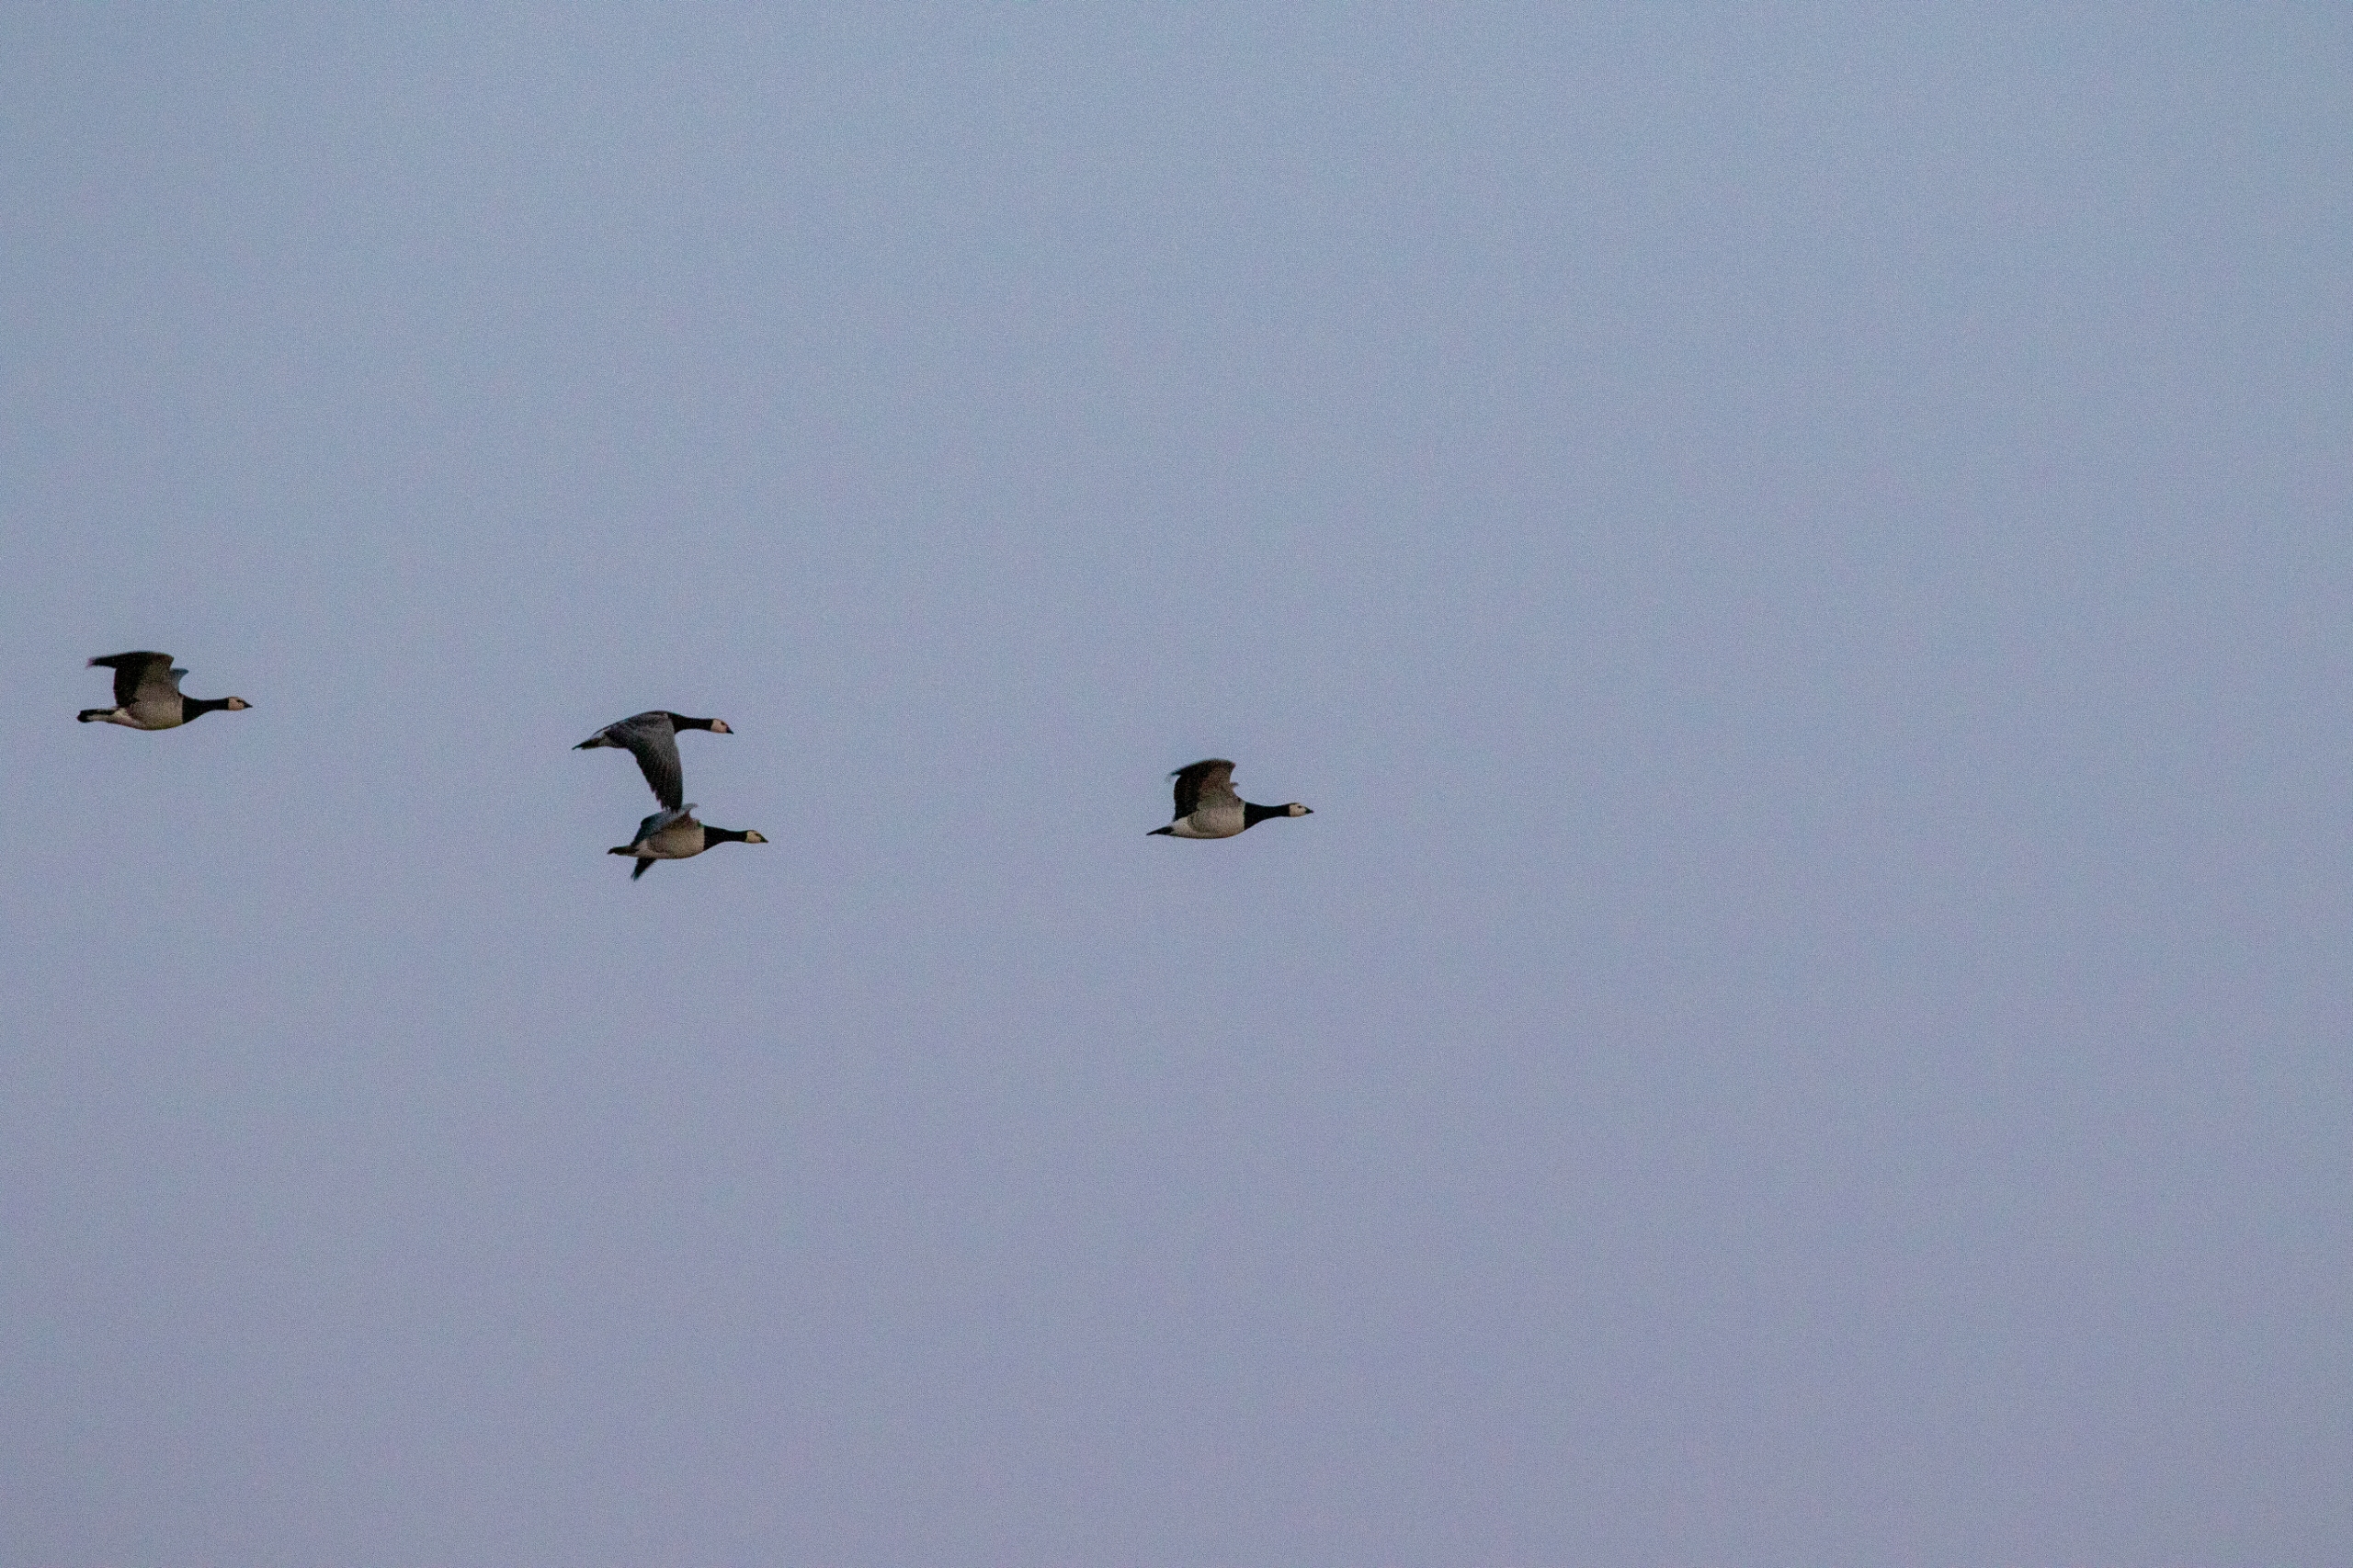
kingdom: Animalia
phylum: Chordata
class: Aves
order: Anseriformes
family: Anatidae
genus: Branta
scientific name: Branta leucopsis
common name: Bramgås
